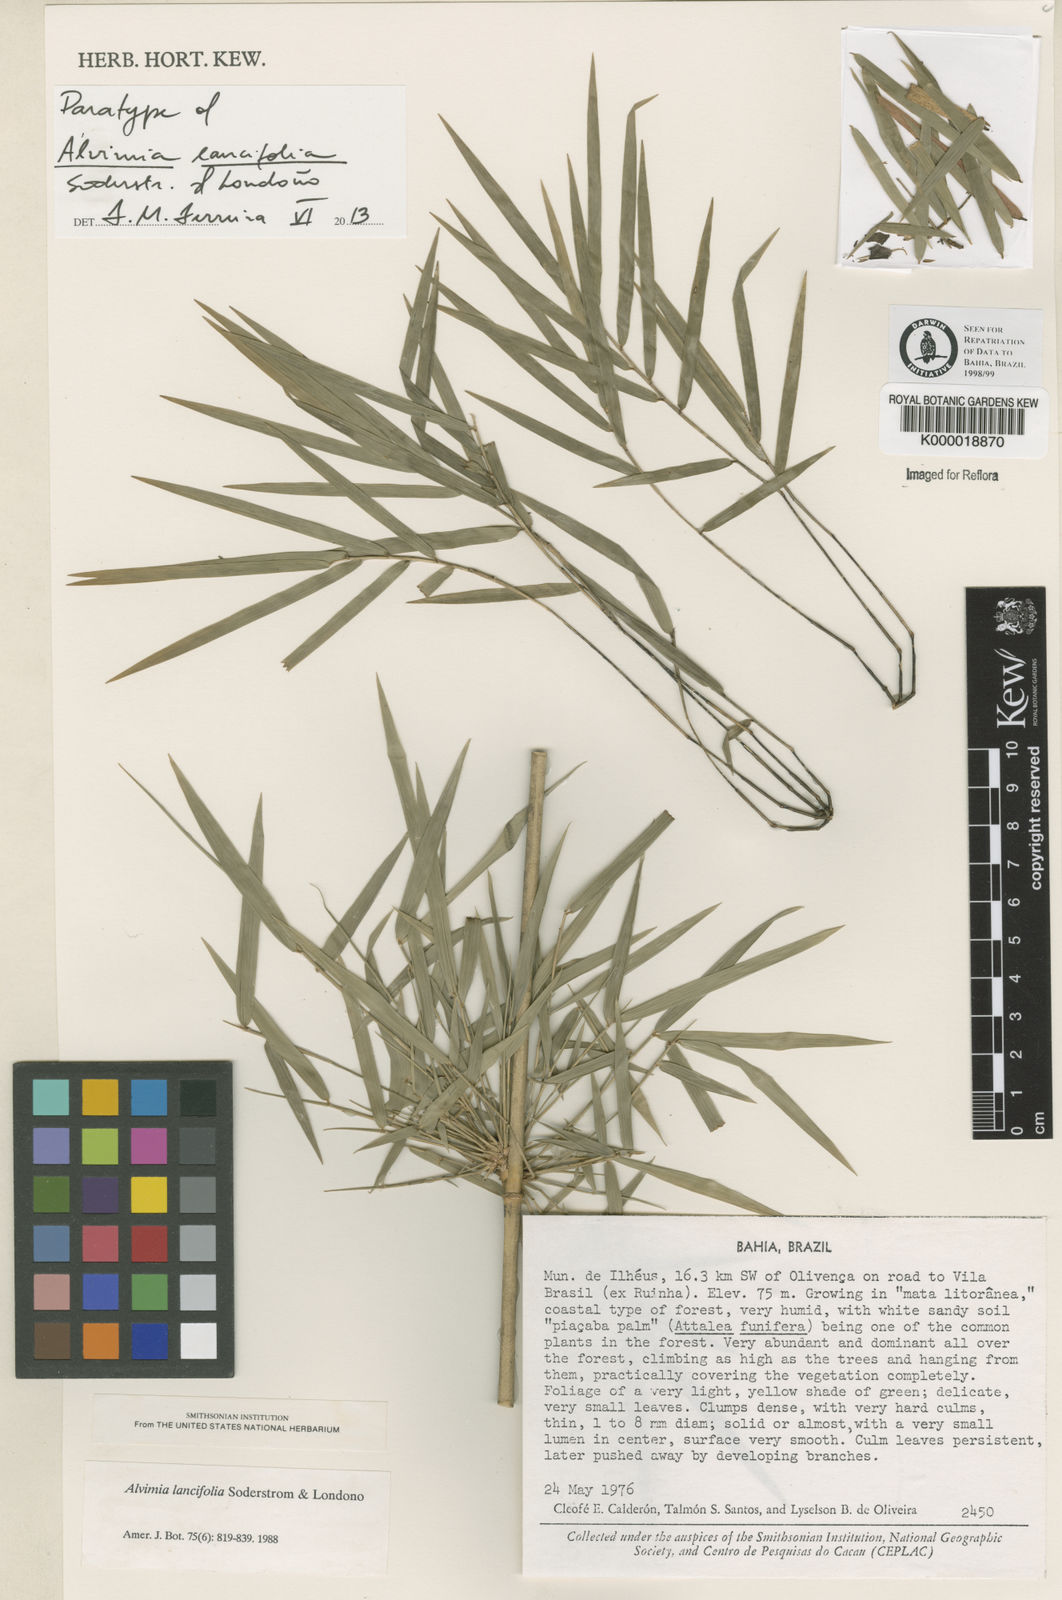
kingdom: Plantae
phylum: Tracheophyta
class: Liliopsida
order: Poales
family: Poaceae
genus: Alvimia
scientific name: Alvimia
